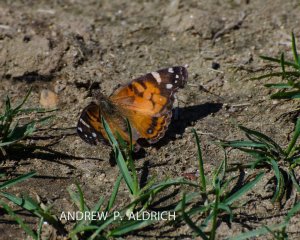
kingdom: Animalia
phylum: Arthropoda
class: Insecta
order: Lepidoptera
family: Nymphalidae
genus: Vanessa
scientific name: Vanessa virginiensis
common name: American Lady
